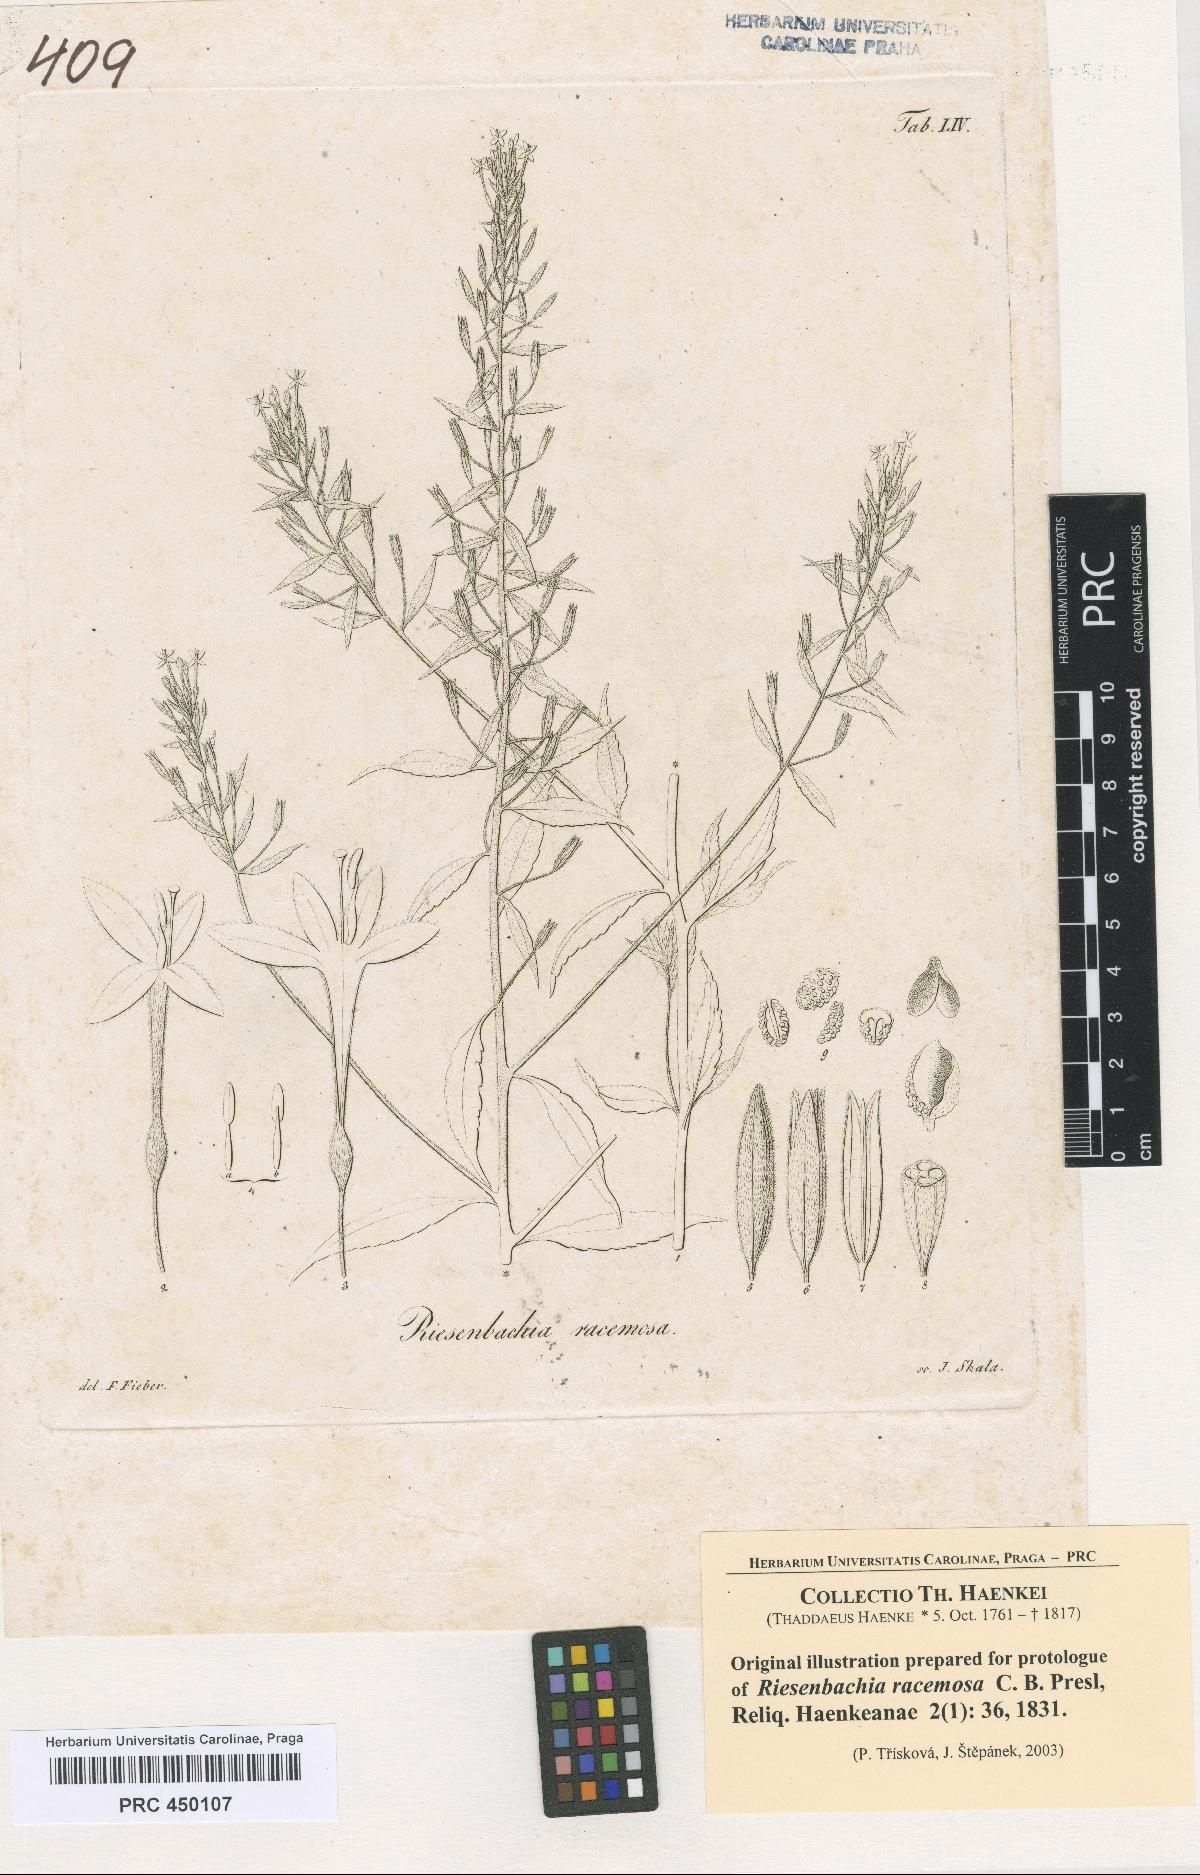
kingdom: Plantae
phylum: Tracheophyta
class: Magnoliopsida
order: Myrtales
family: Onagraceae
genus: Lopezia
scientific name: Lopezia riesenbachia
